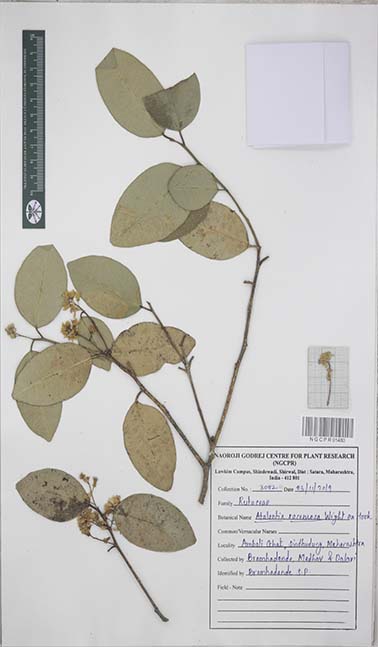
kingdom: Plantae
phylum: Tracheophyta
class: Magnoliopsida
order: Sapindales
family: Rutaceae
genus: Atalantia
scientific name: Atalantia racemosa
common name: Bombay atalantia
